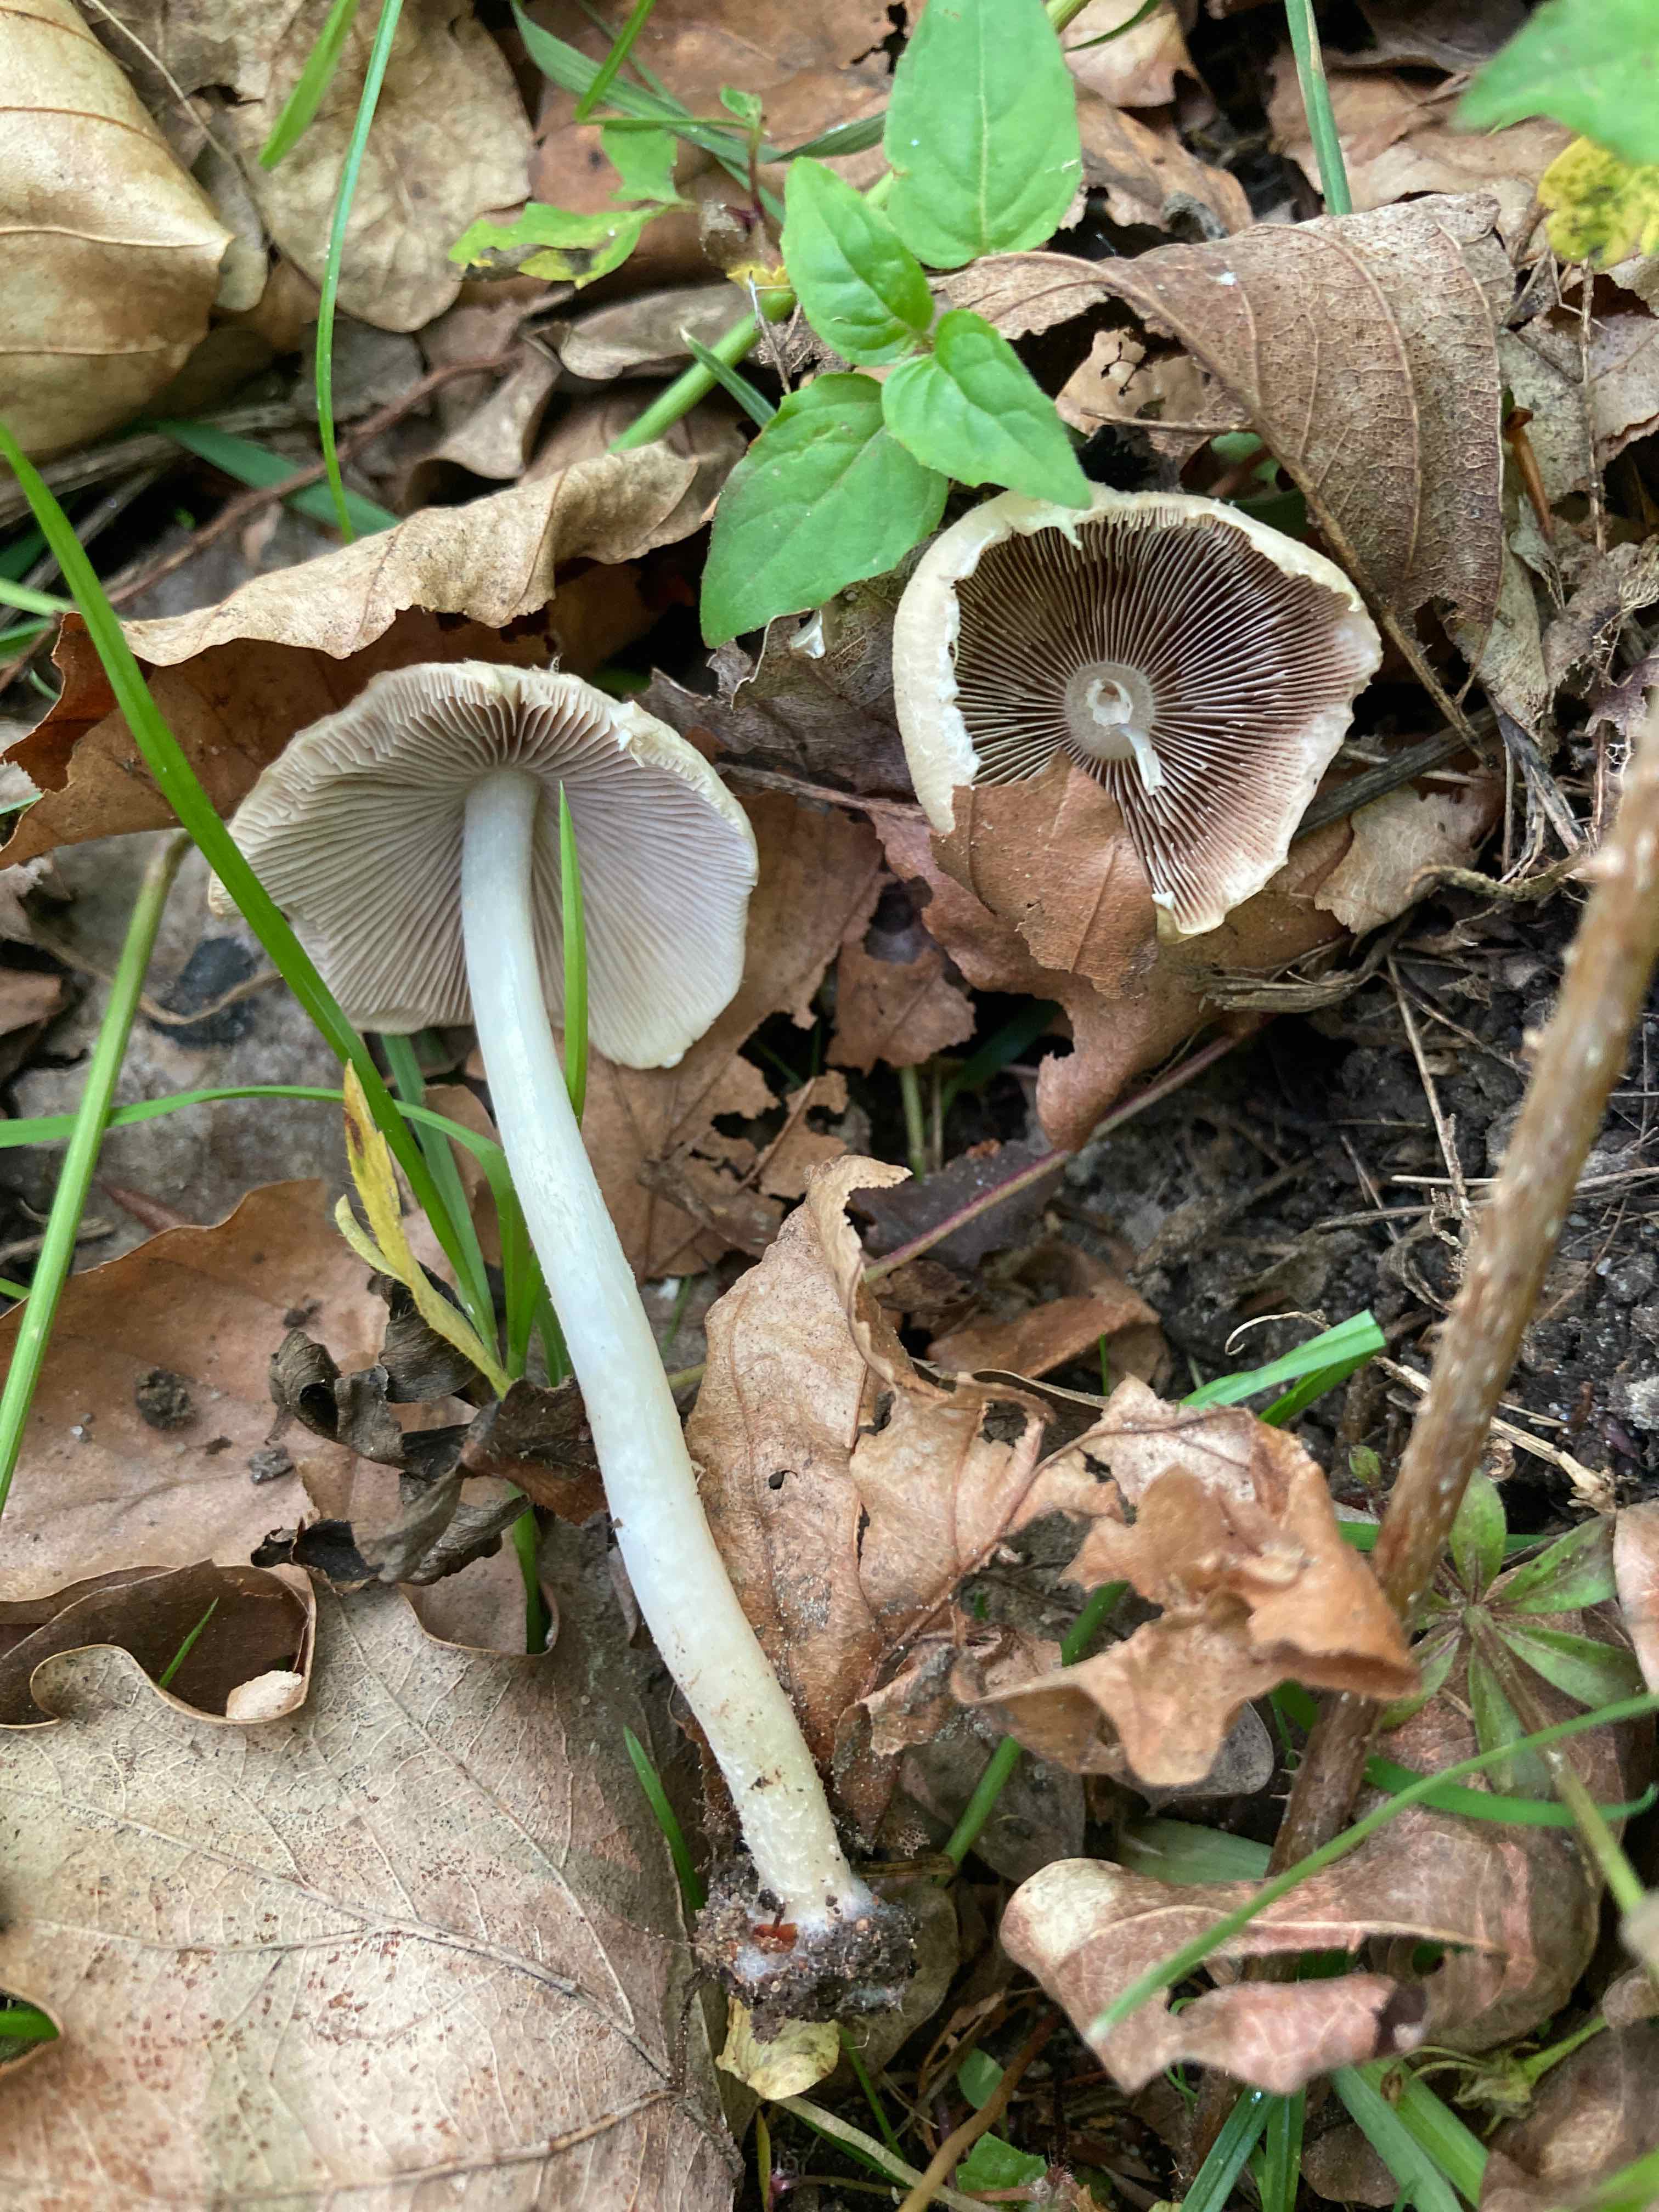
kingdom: Fungi
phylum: Basidiomycota
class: Agaricomycetes
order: Agaricales
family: Psathyrellaceae
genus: Candolleomyces
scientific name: Candolleomyces candolleanus
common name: Candolles mørkhat
